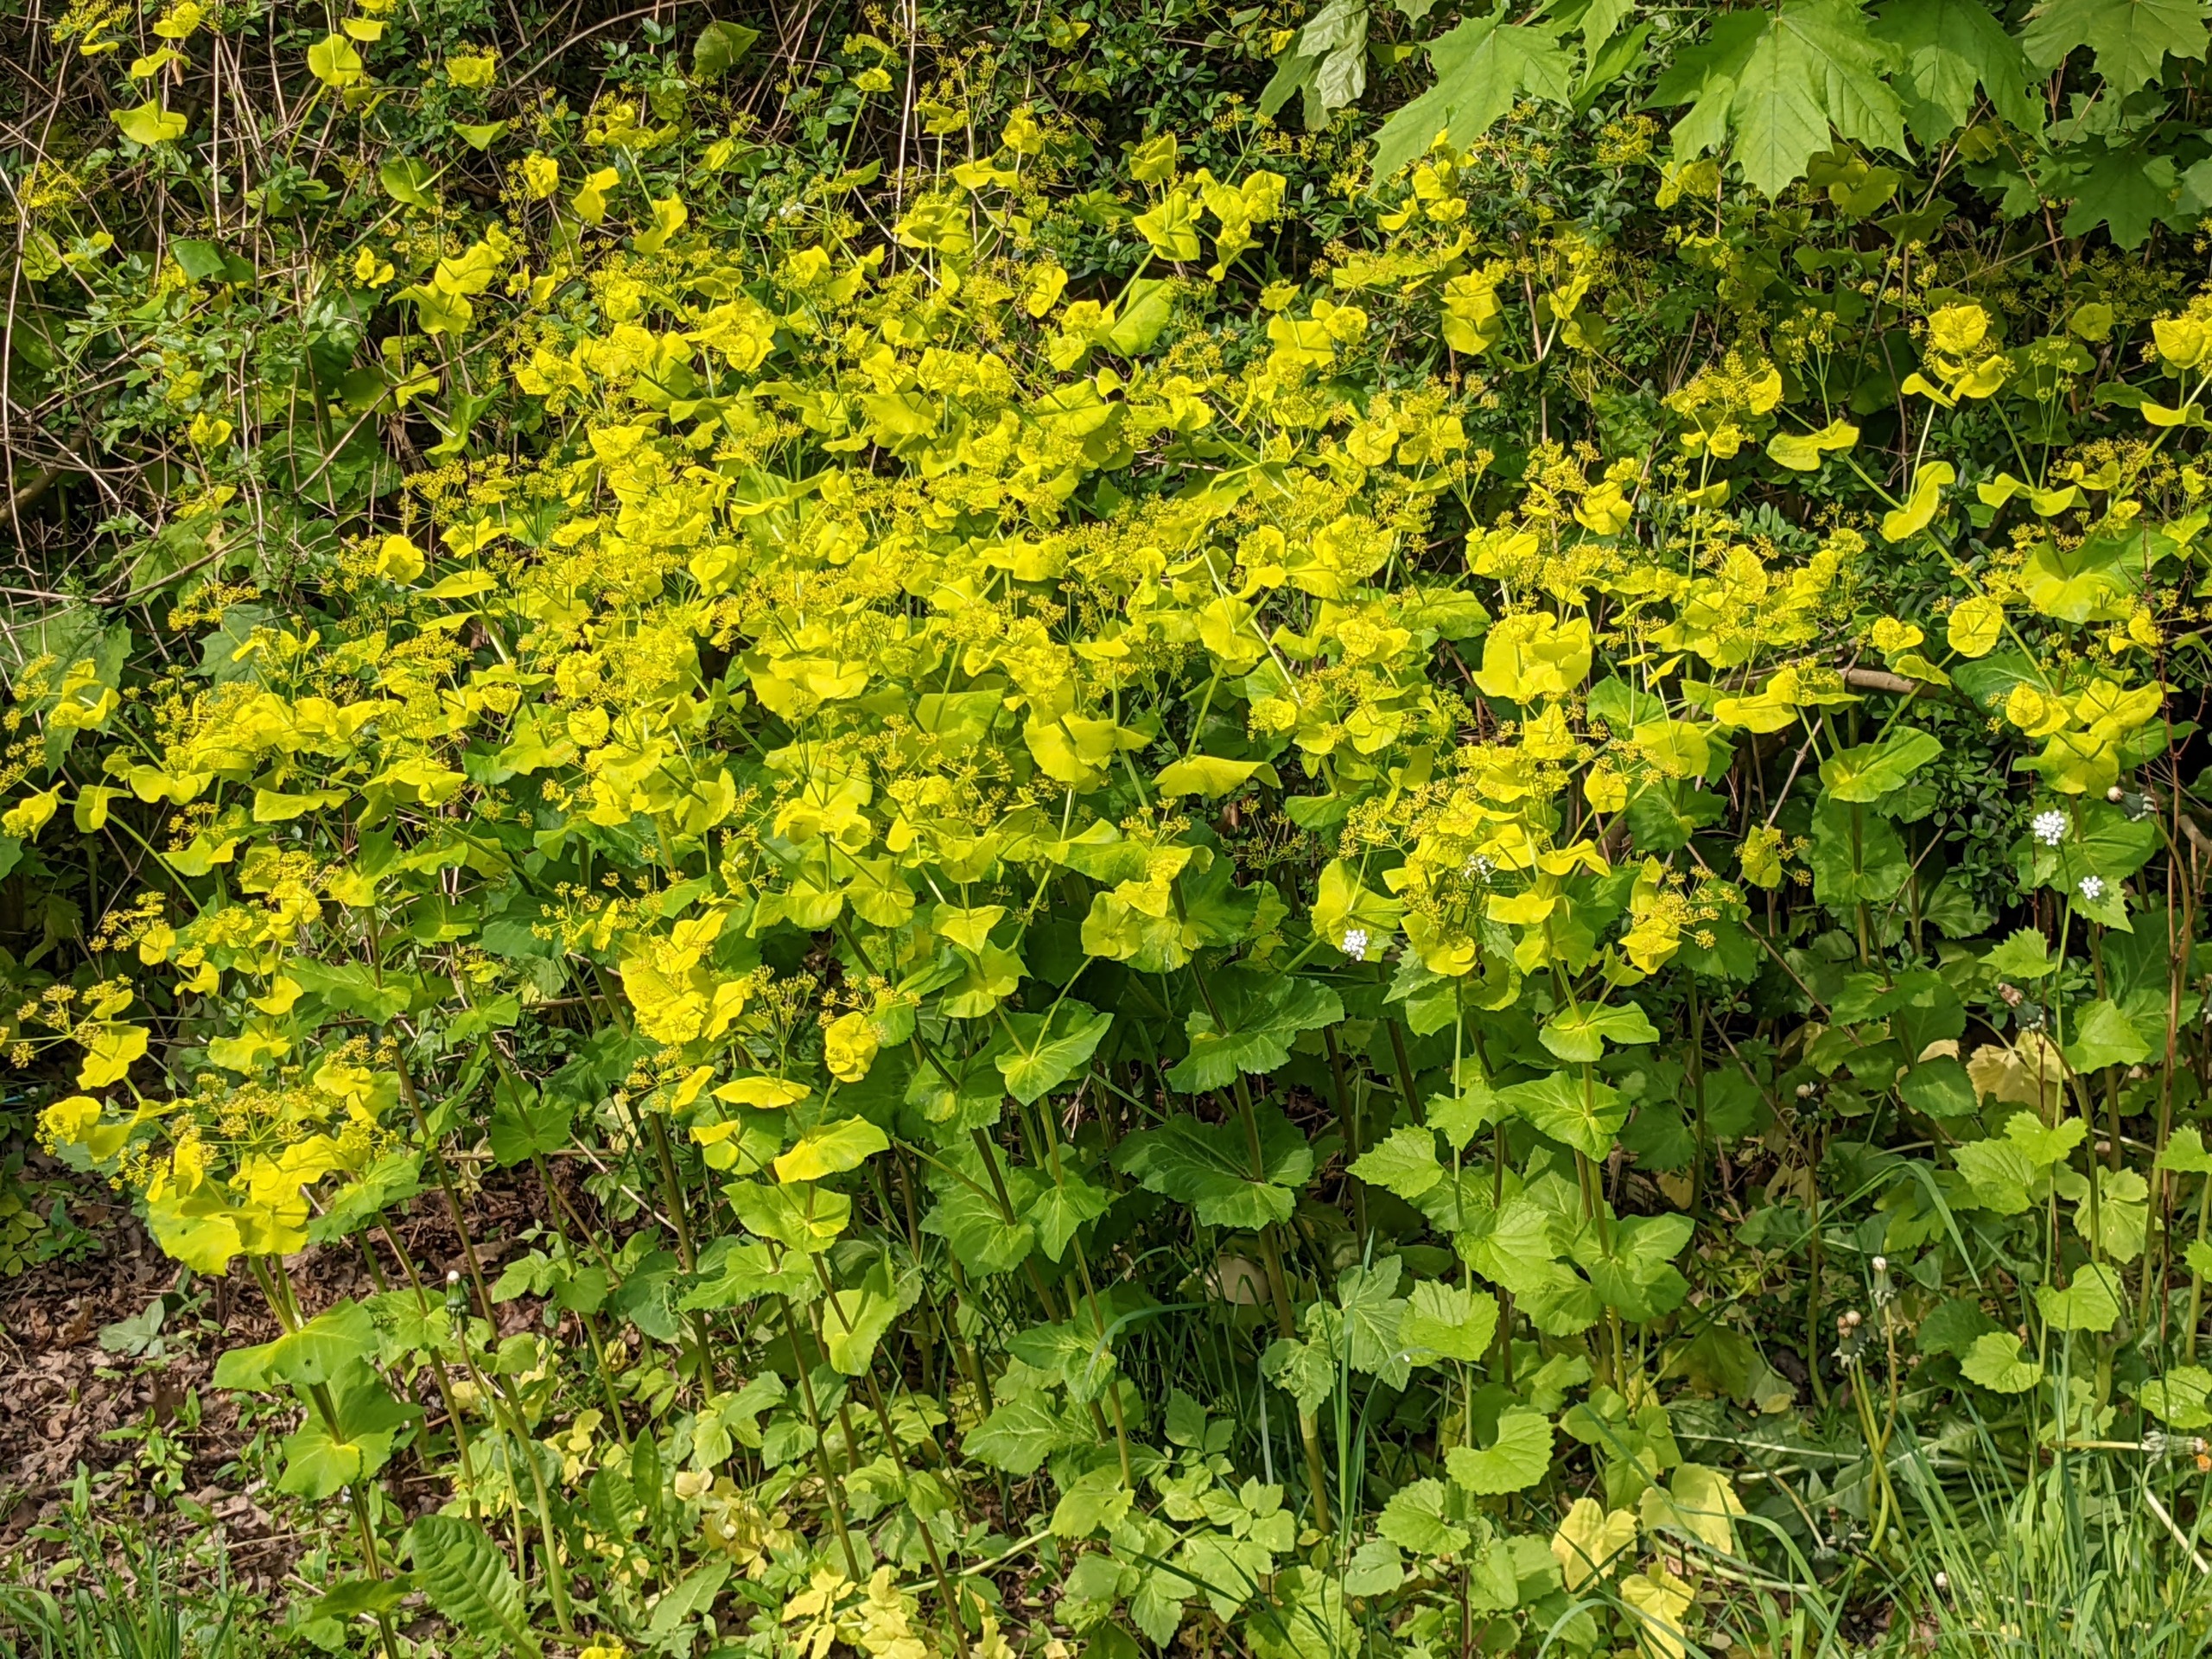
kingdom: Plantae
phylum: Tracheophyta
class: Magnoliopsida
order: Apiales
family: Apiaceae
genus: Smyrnium
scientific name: Smyrnium perfoliatum
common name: Lundgylden
